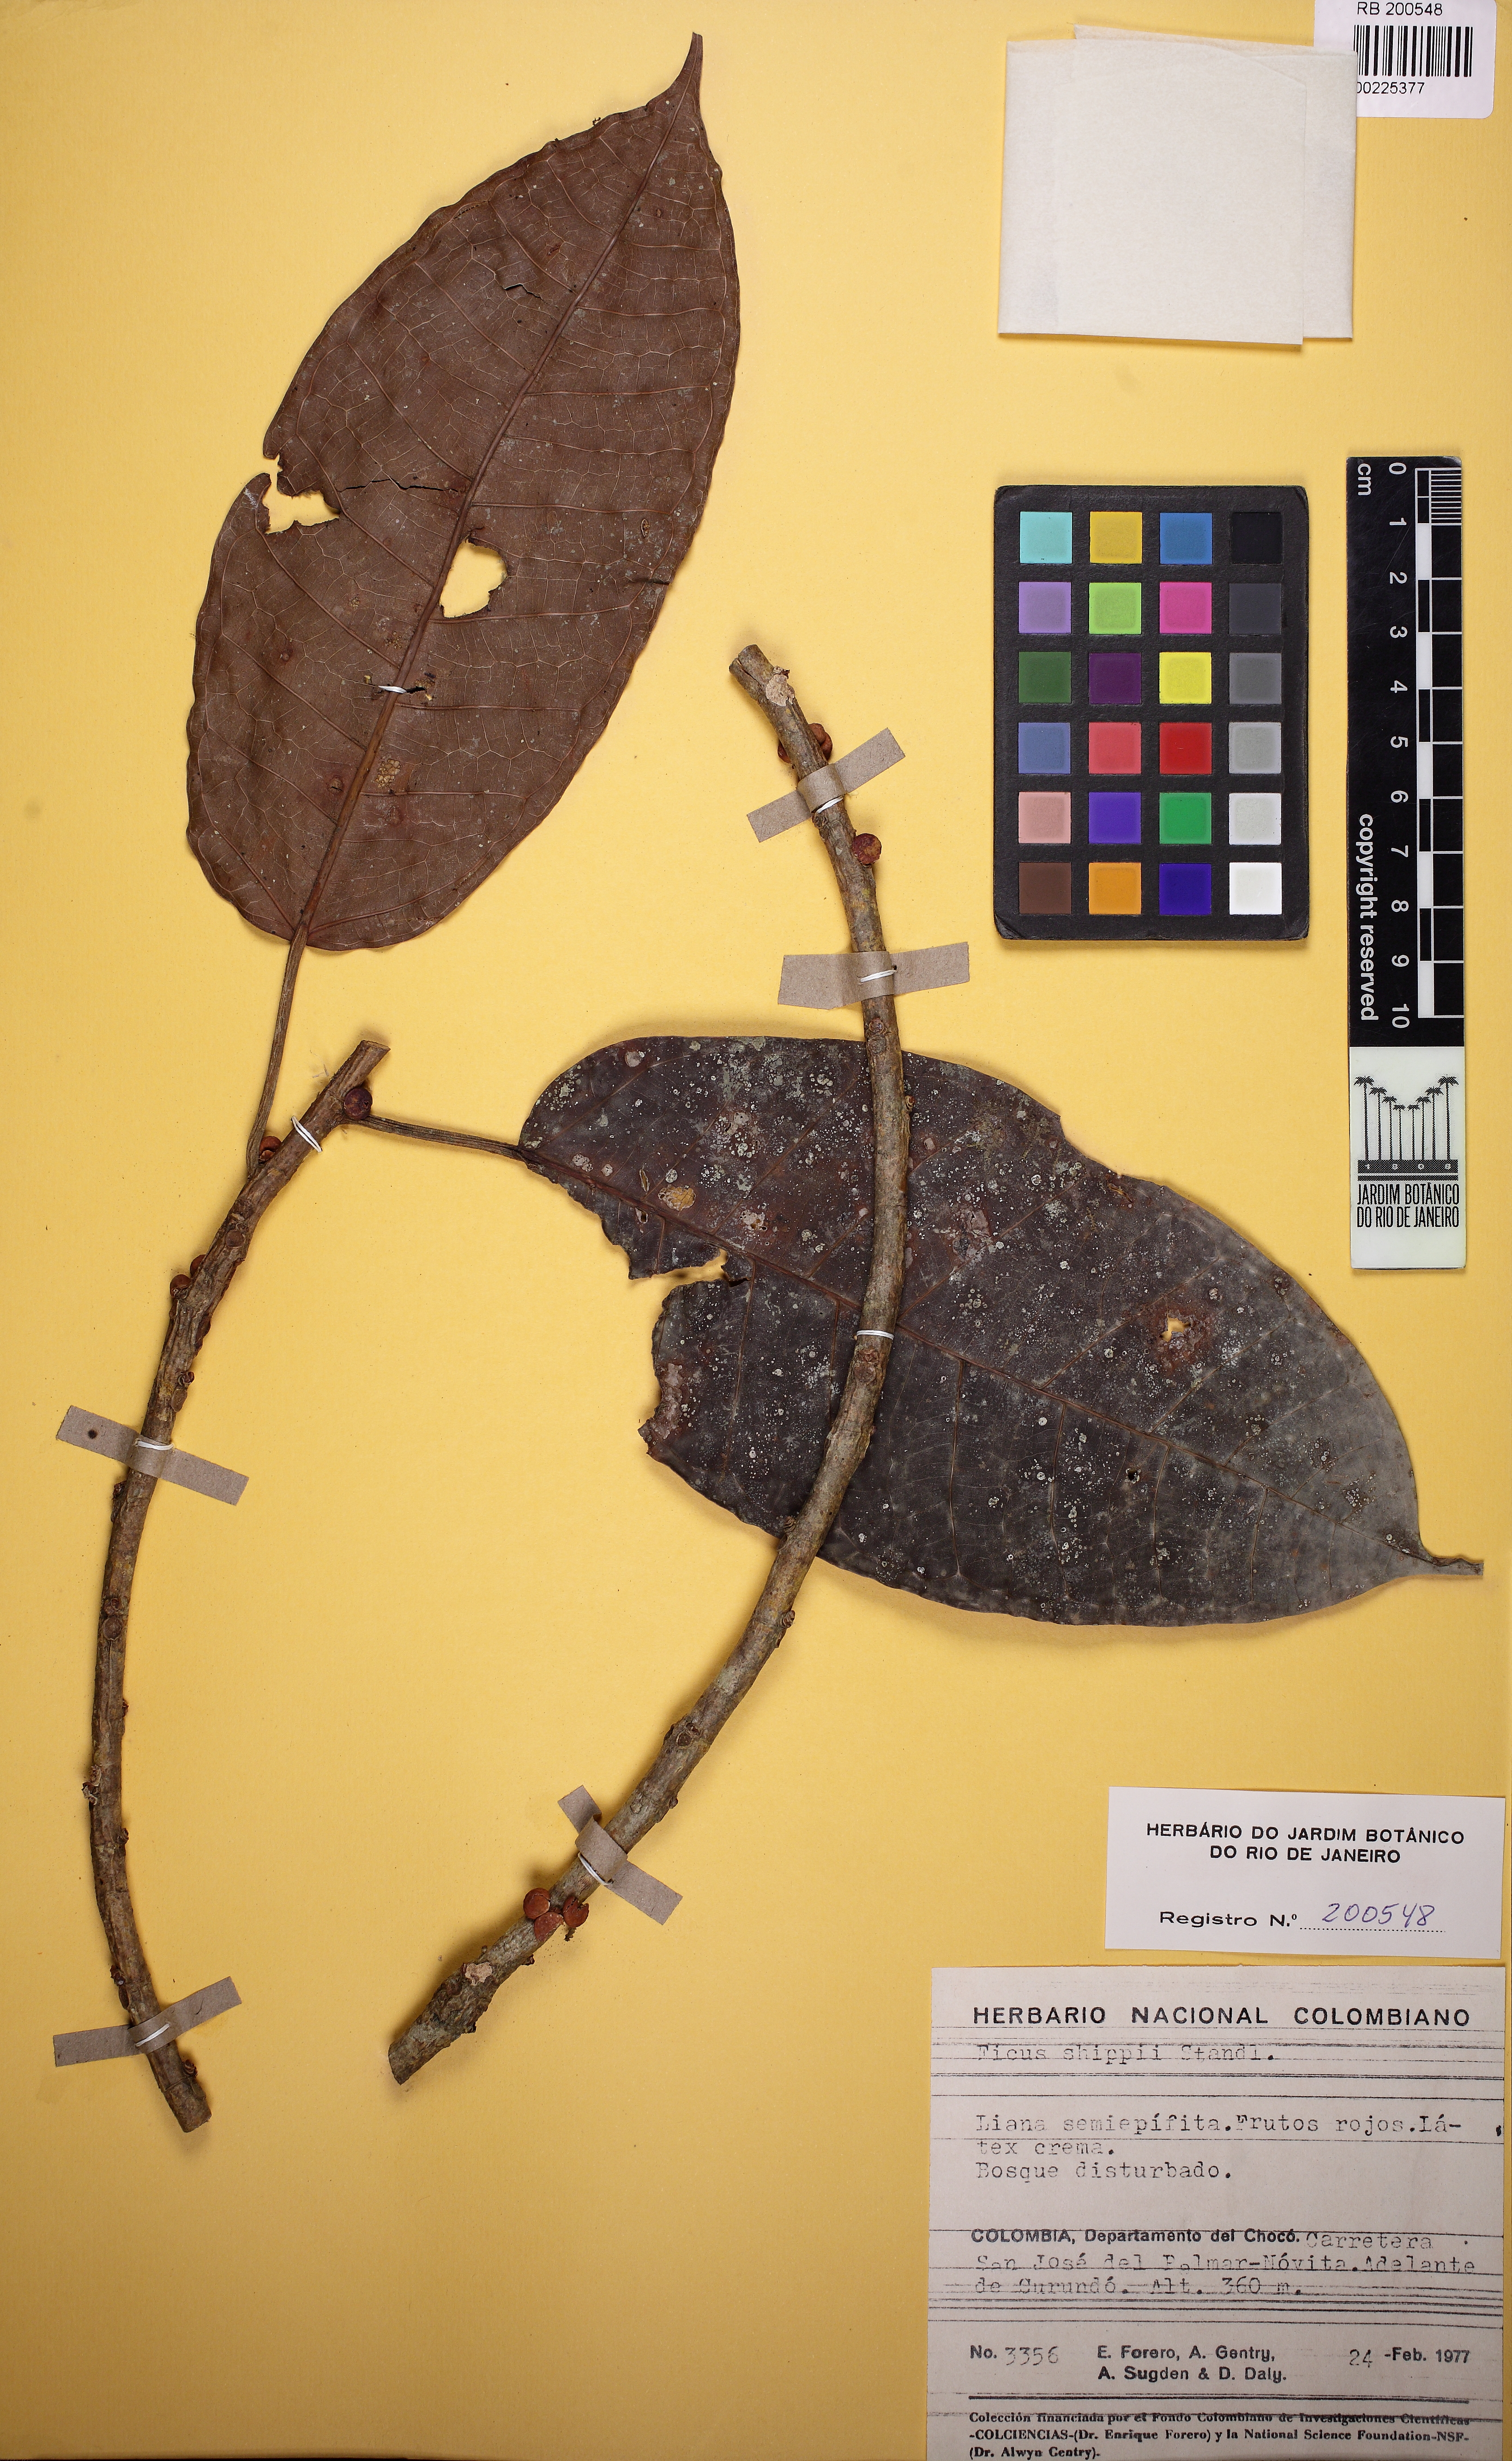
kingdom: Plantae
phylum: Tracheophyta
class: Magnoliopsida
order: Rosales
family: Moraceae
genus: Ficus
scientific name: Ficus schippii
